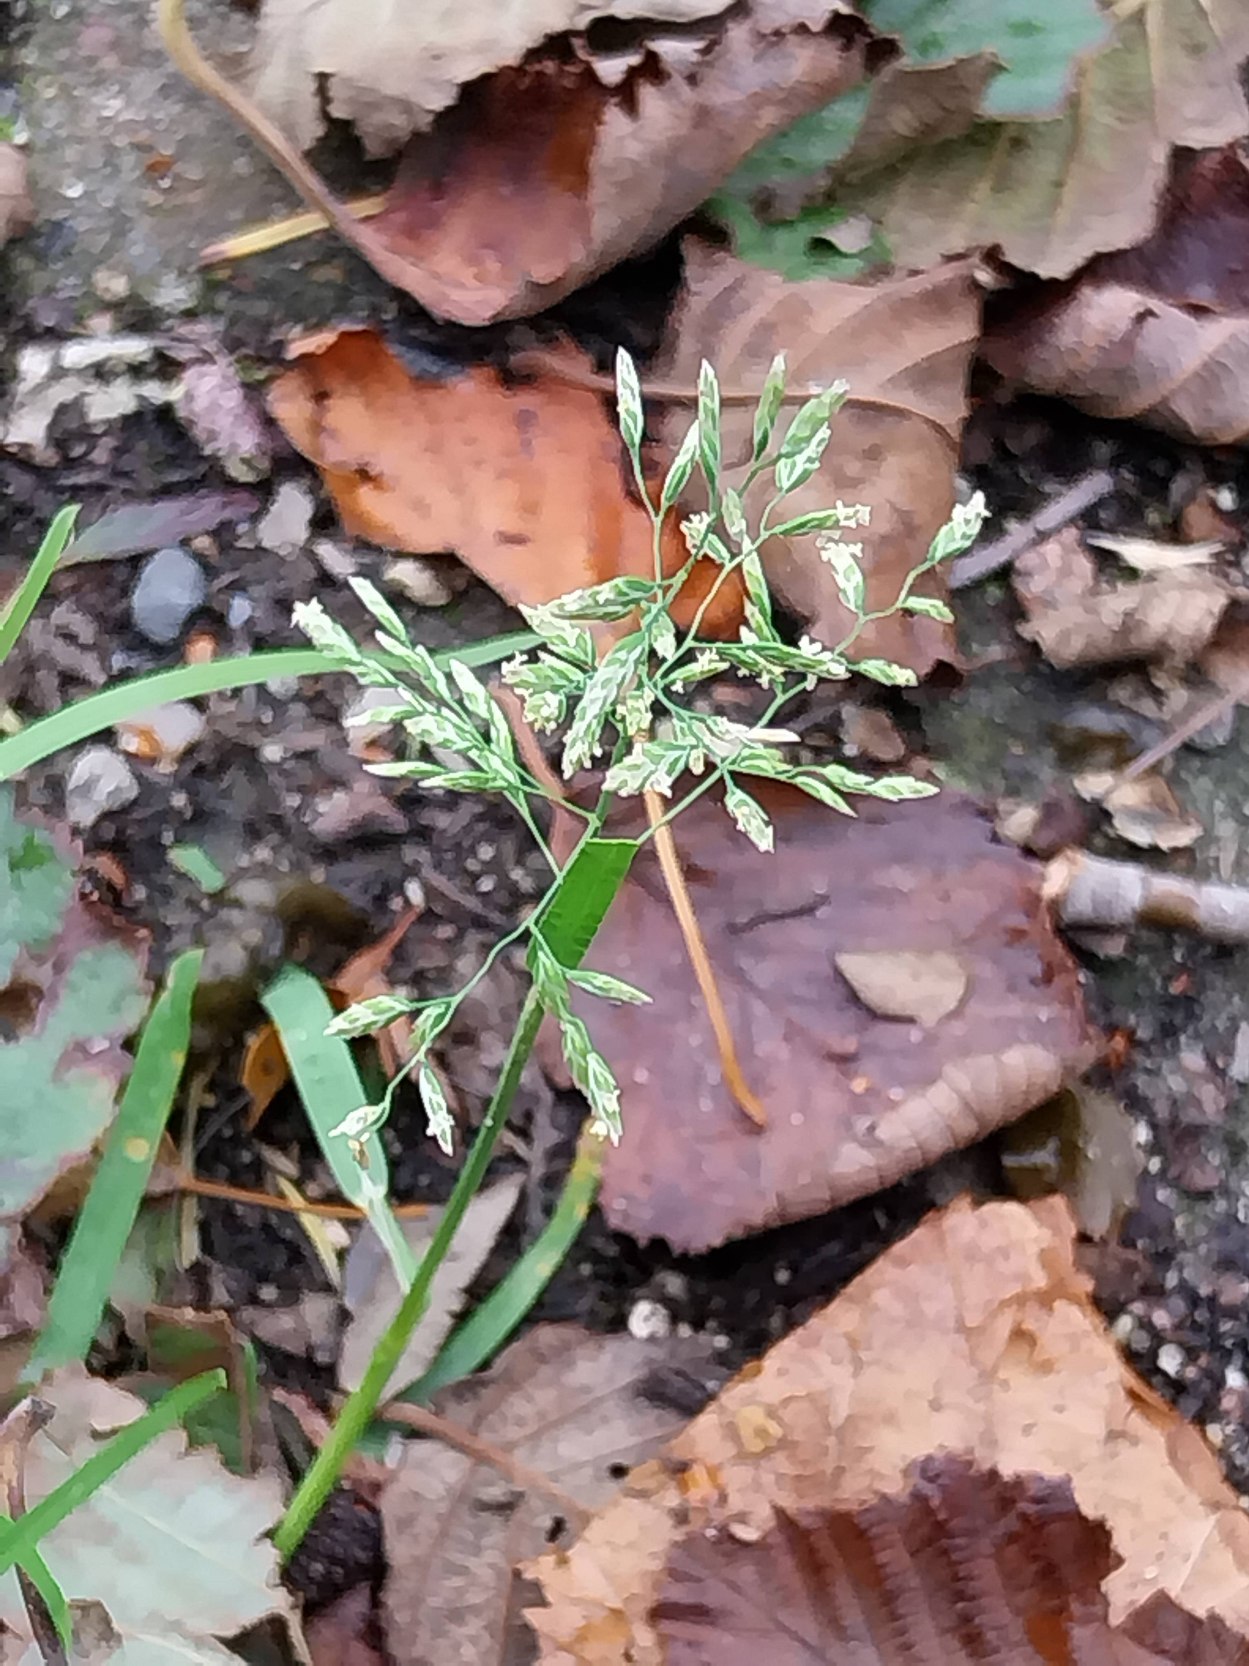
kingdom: Plantae
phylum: Tracheophyta
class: Liliopsida
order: Poales
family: Poaceae
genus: Poa
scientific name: Poa annua
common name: Enårig rapgræs
